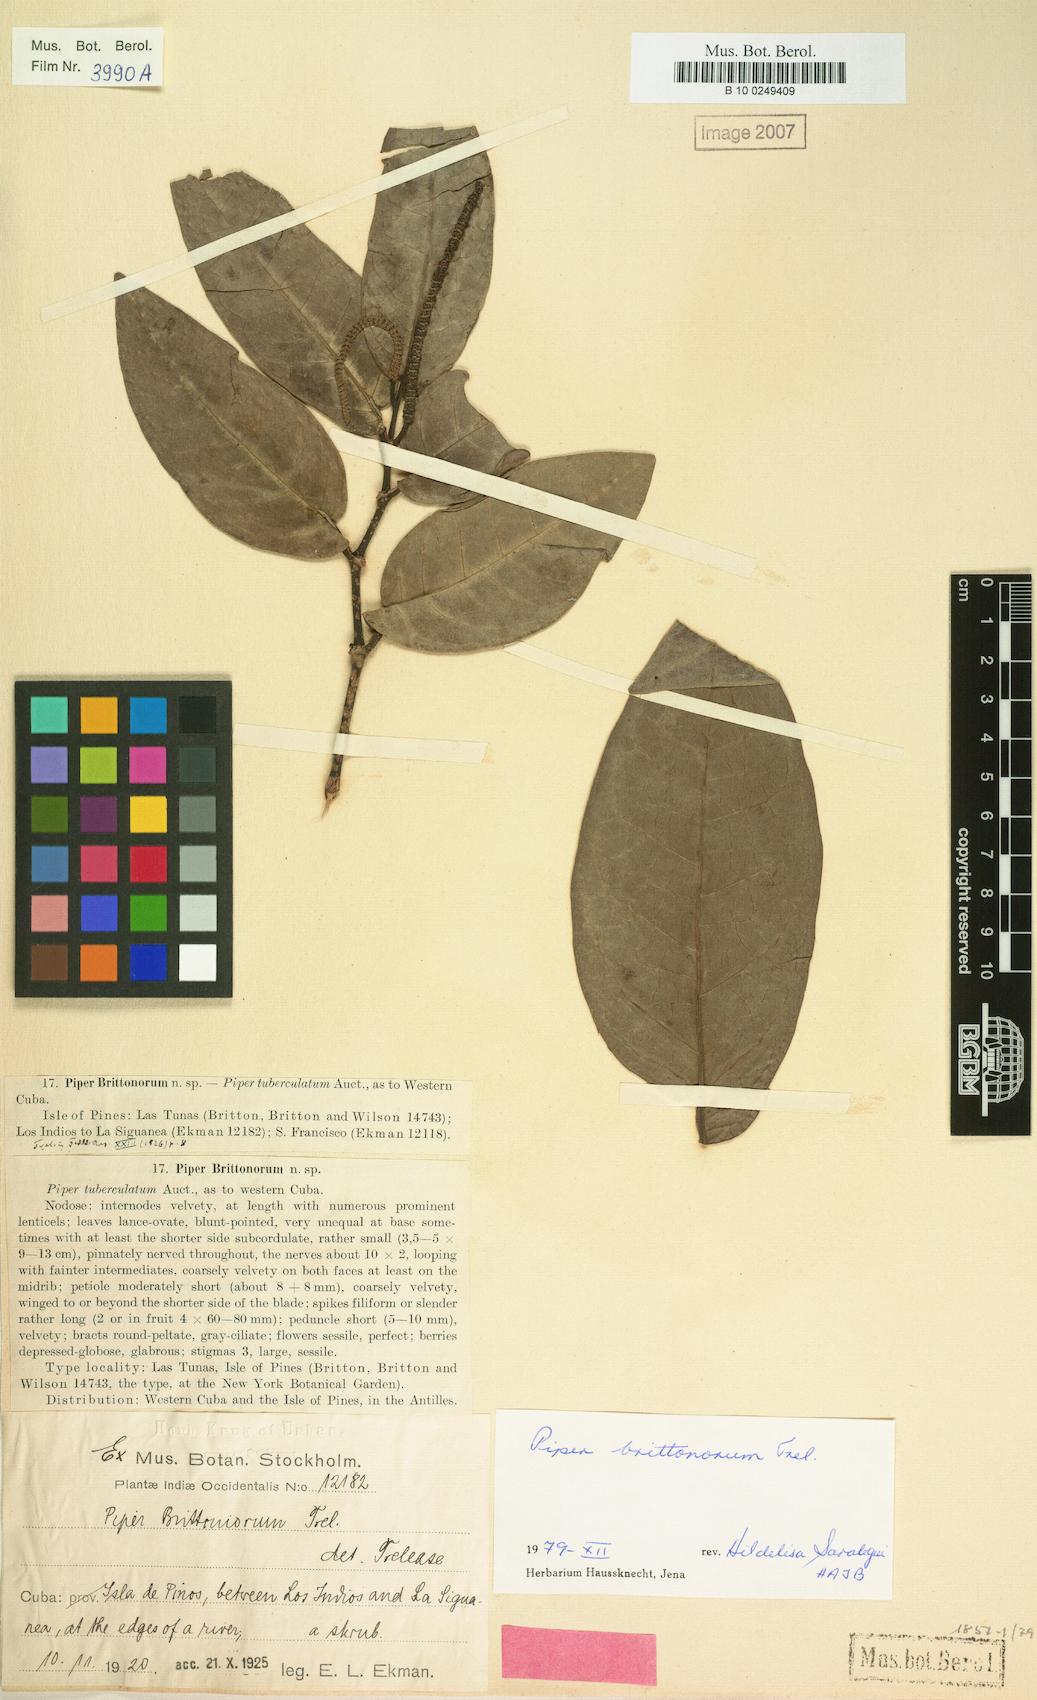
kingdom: Plantae
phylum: Tracheophyta
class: Magnoliopsida
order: Piperales
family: Piperaceae
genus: Piper
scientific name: Piper tuberculatum
